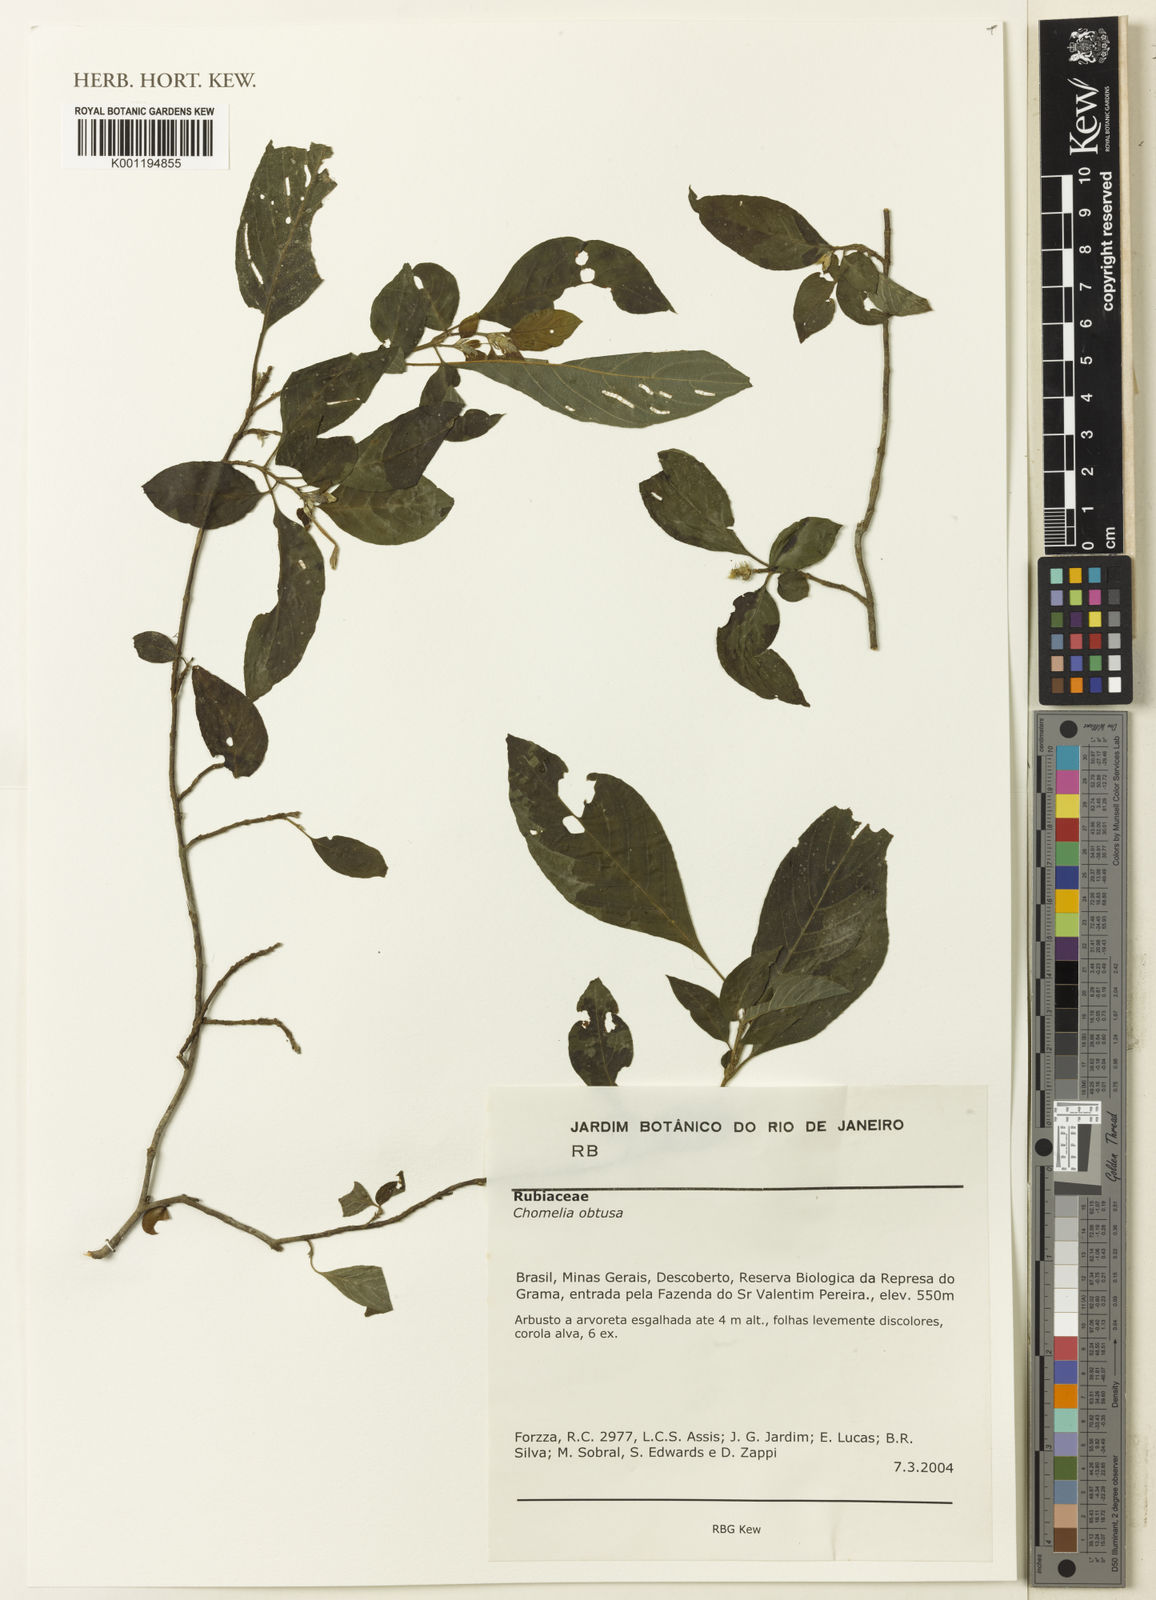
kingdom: Plantae
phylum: Tracheophyta
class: Magnoliopsida
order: Gentianales
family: Rubiaceae
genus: Chomelia
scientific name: Chomelia obtusa
